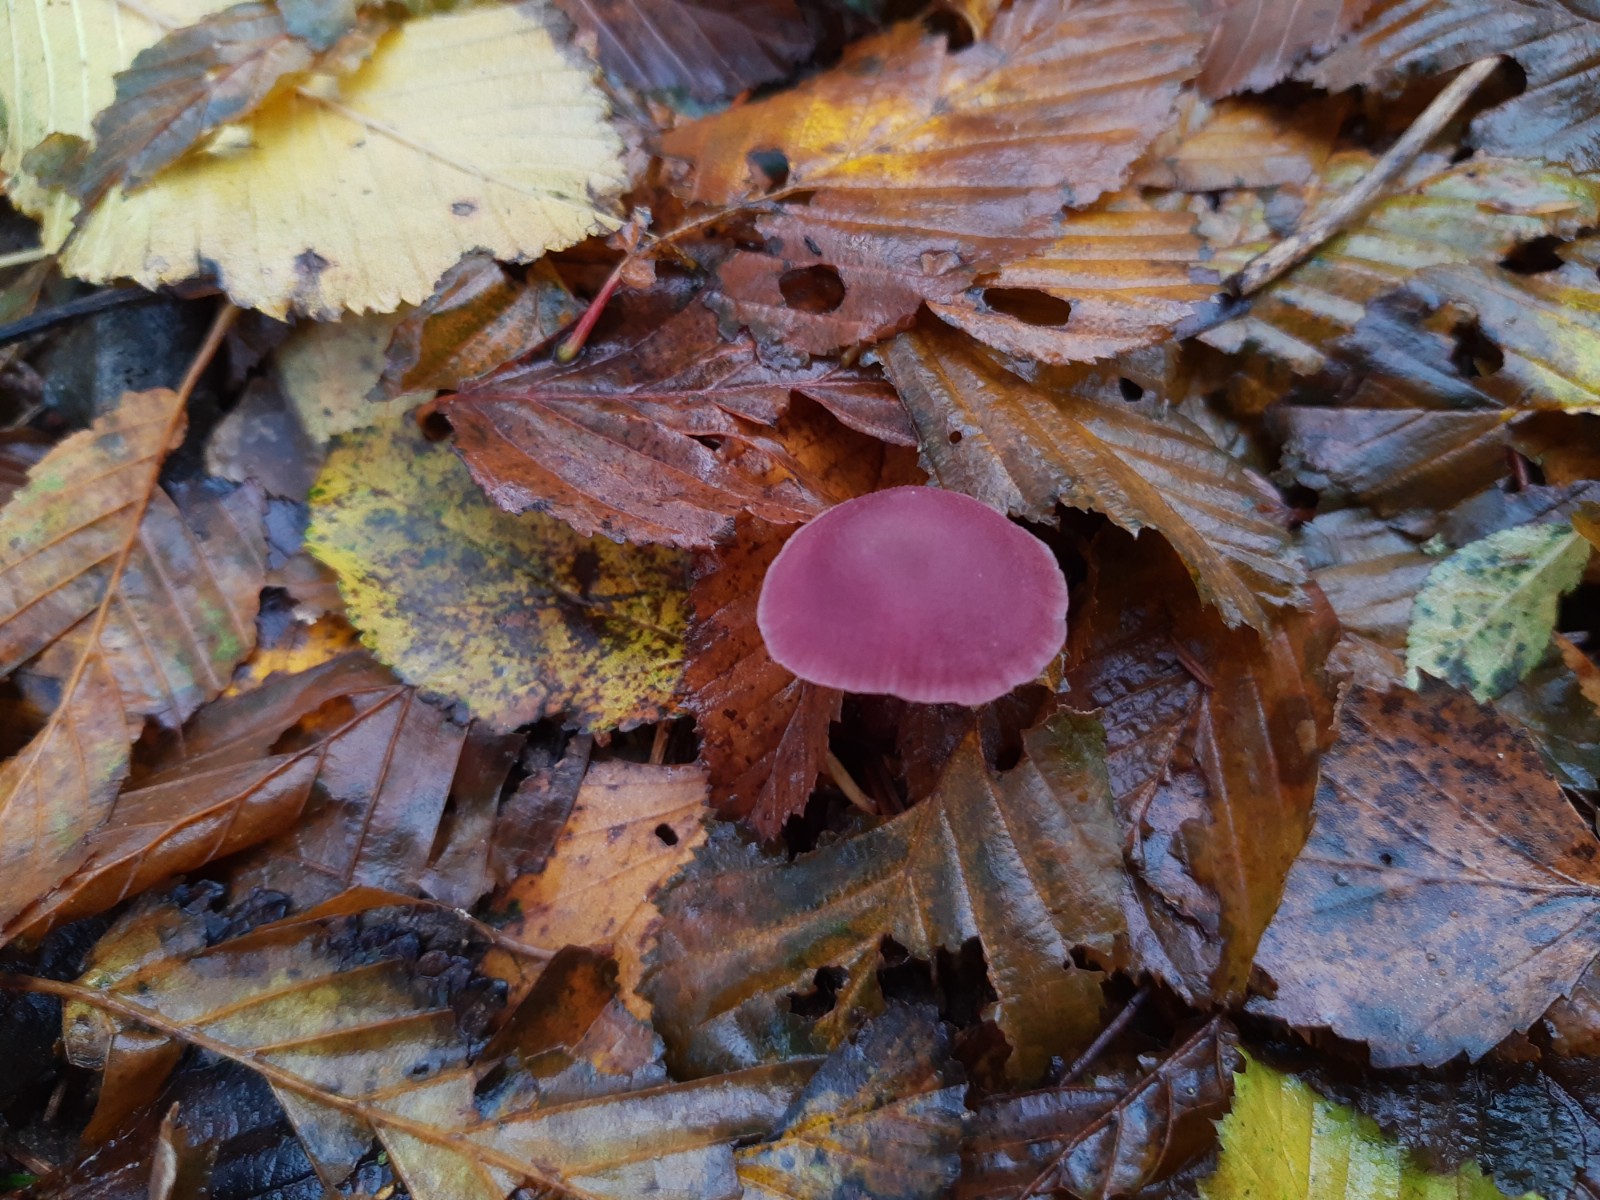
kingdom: Fungi
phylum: Basidiomycota
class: Agaricomycetes
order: Agaricales
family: Hydnangiaceae
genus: Laccaria
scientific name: Laccaria amethystina
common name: violet ametysthat
